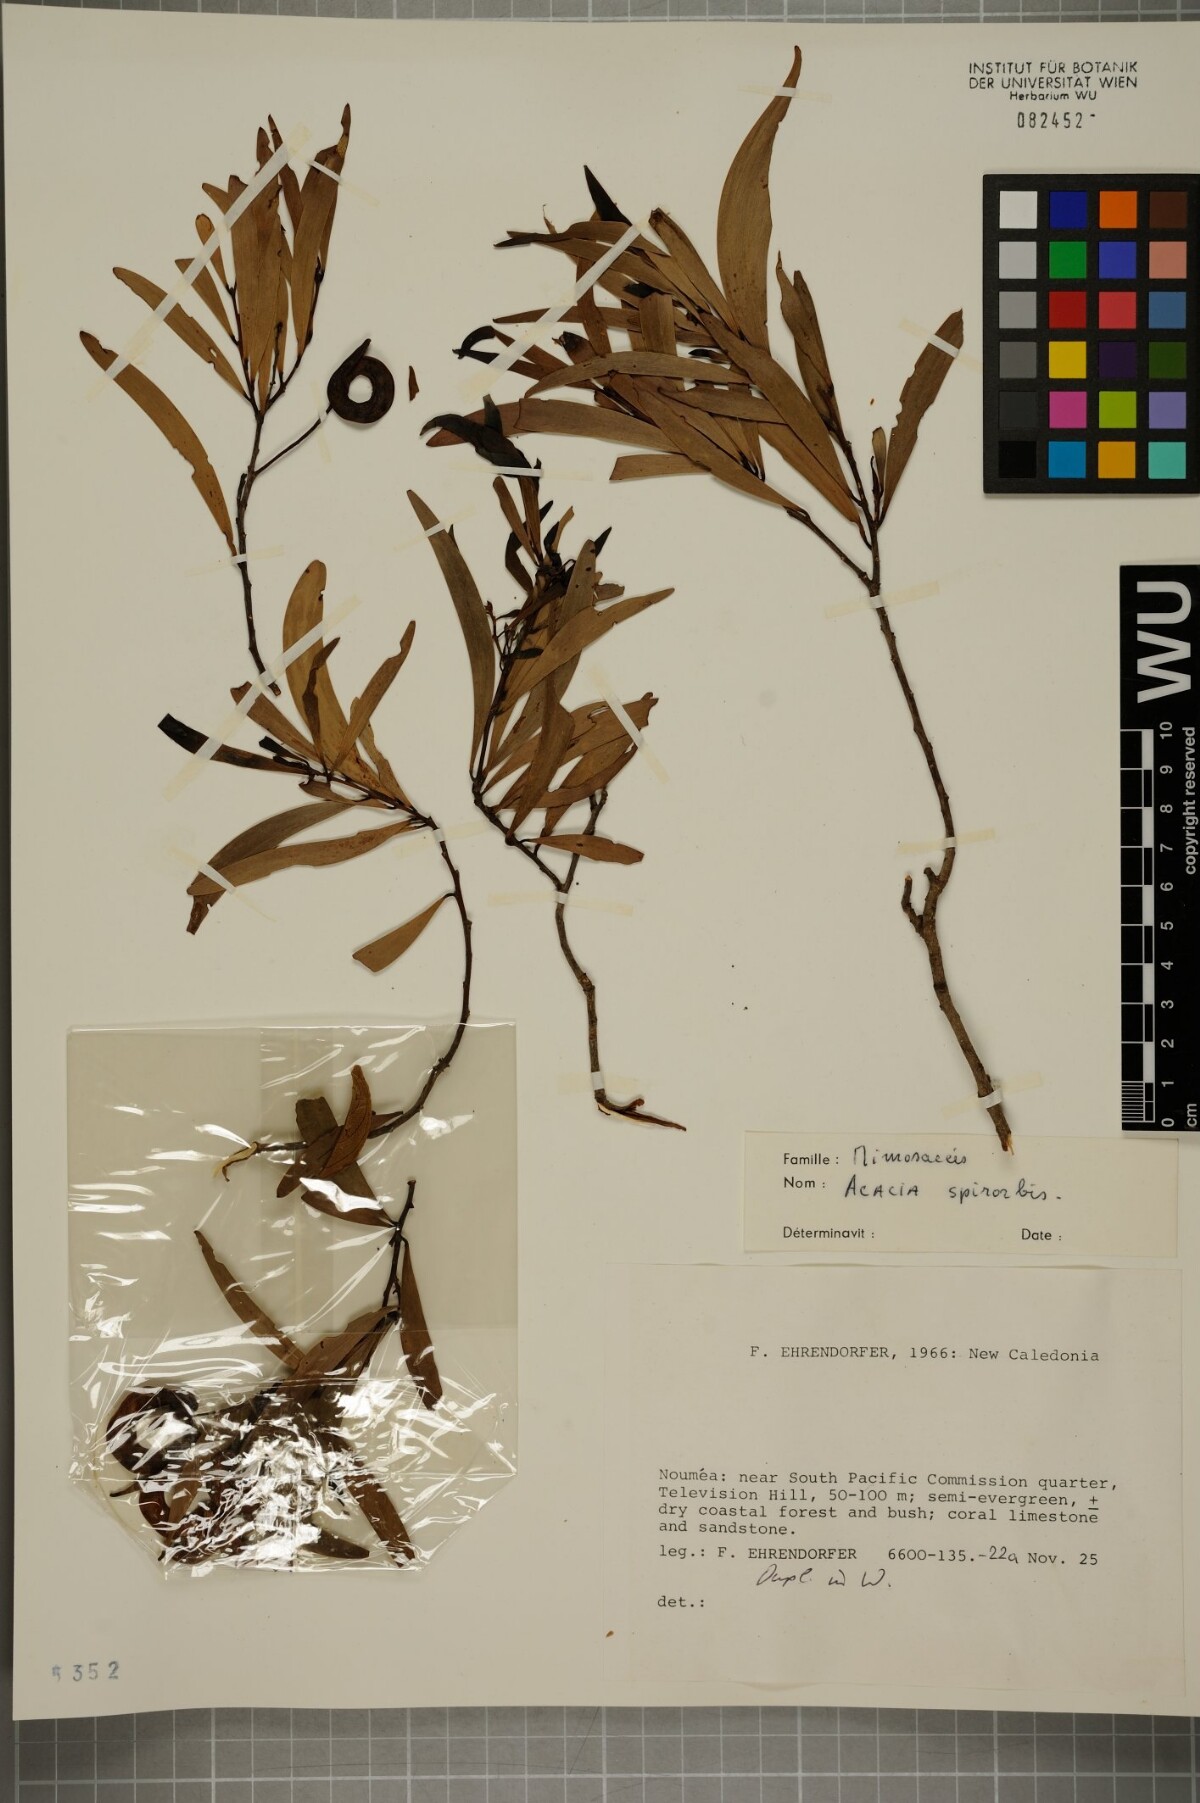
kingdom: Plantae
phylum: Tracheophyta
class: Magnoliopsida
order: Fabales
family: Fabaceae
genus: Acacia
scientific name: Acacia spirorbis
